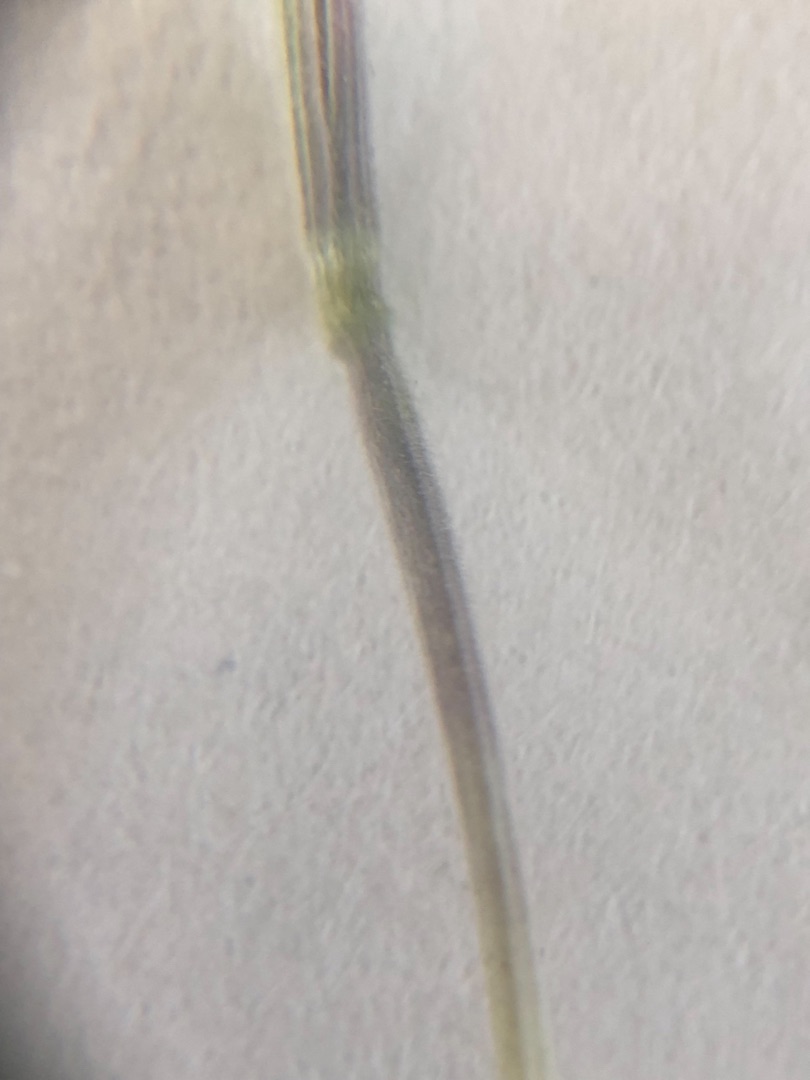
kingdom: Plantae
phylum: Tracheophyta
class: Liliopsida
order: Poales
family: Poaceae
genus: Holcus
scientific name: Holcus lanatus
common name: Fløjlsgræs
